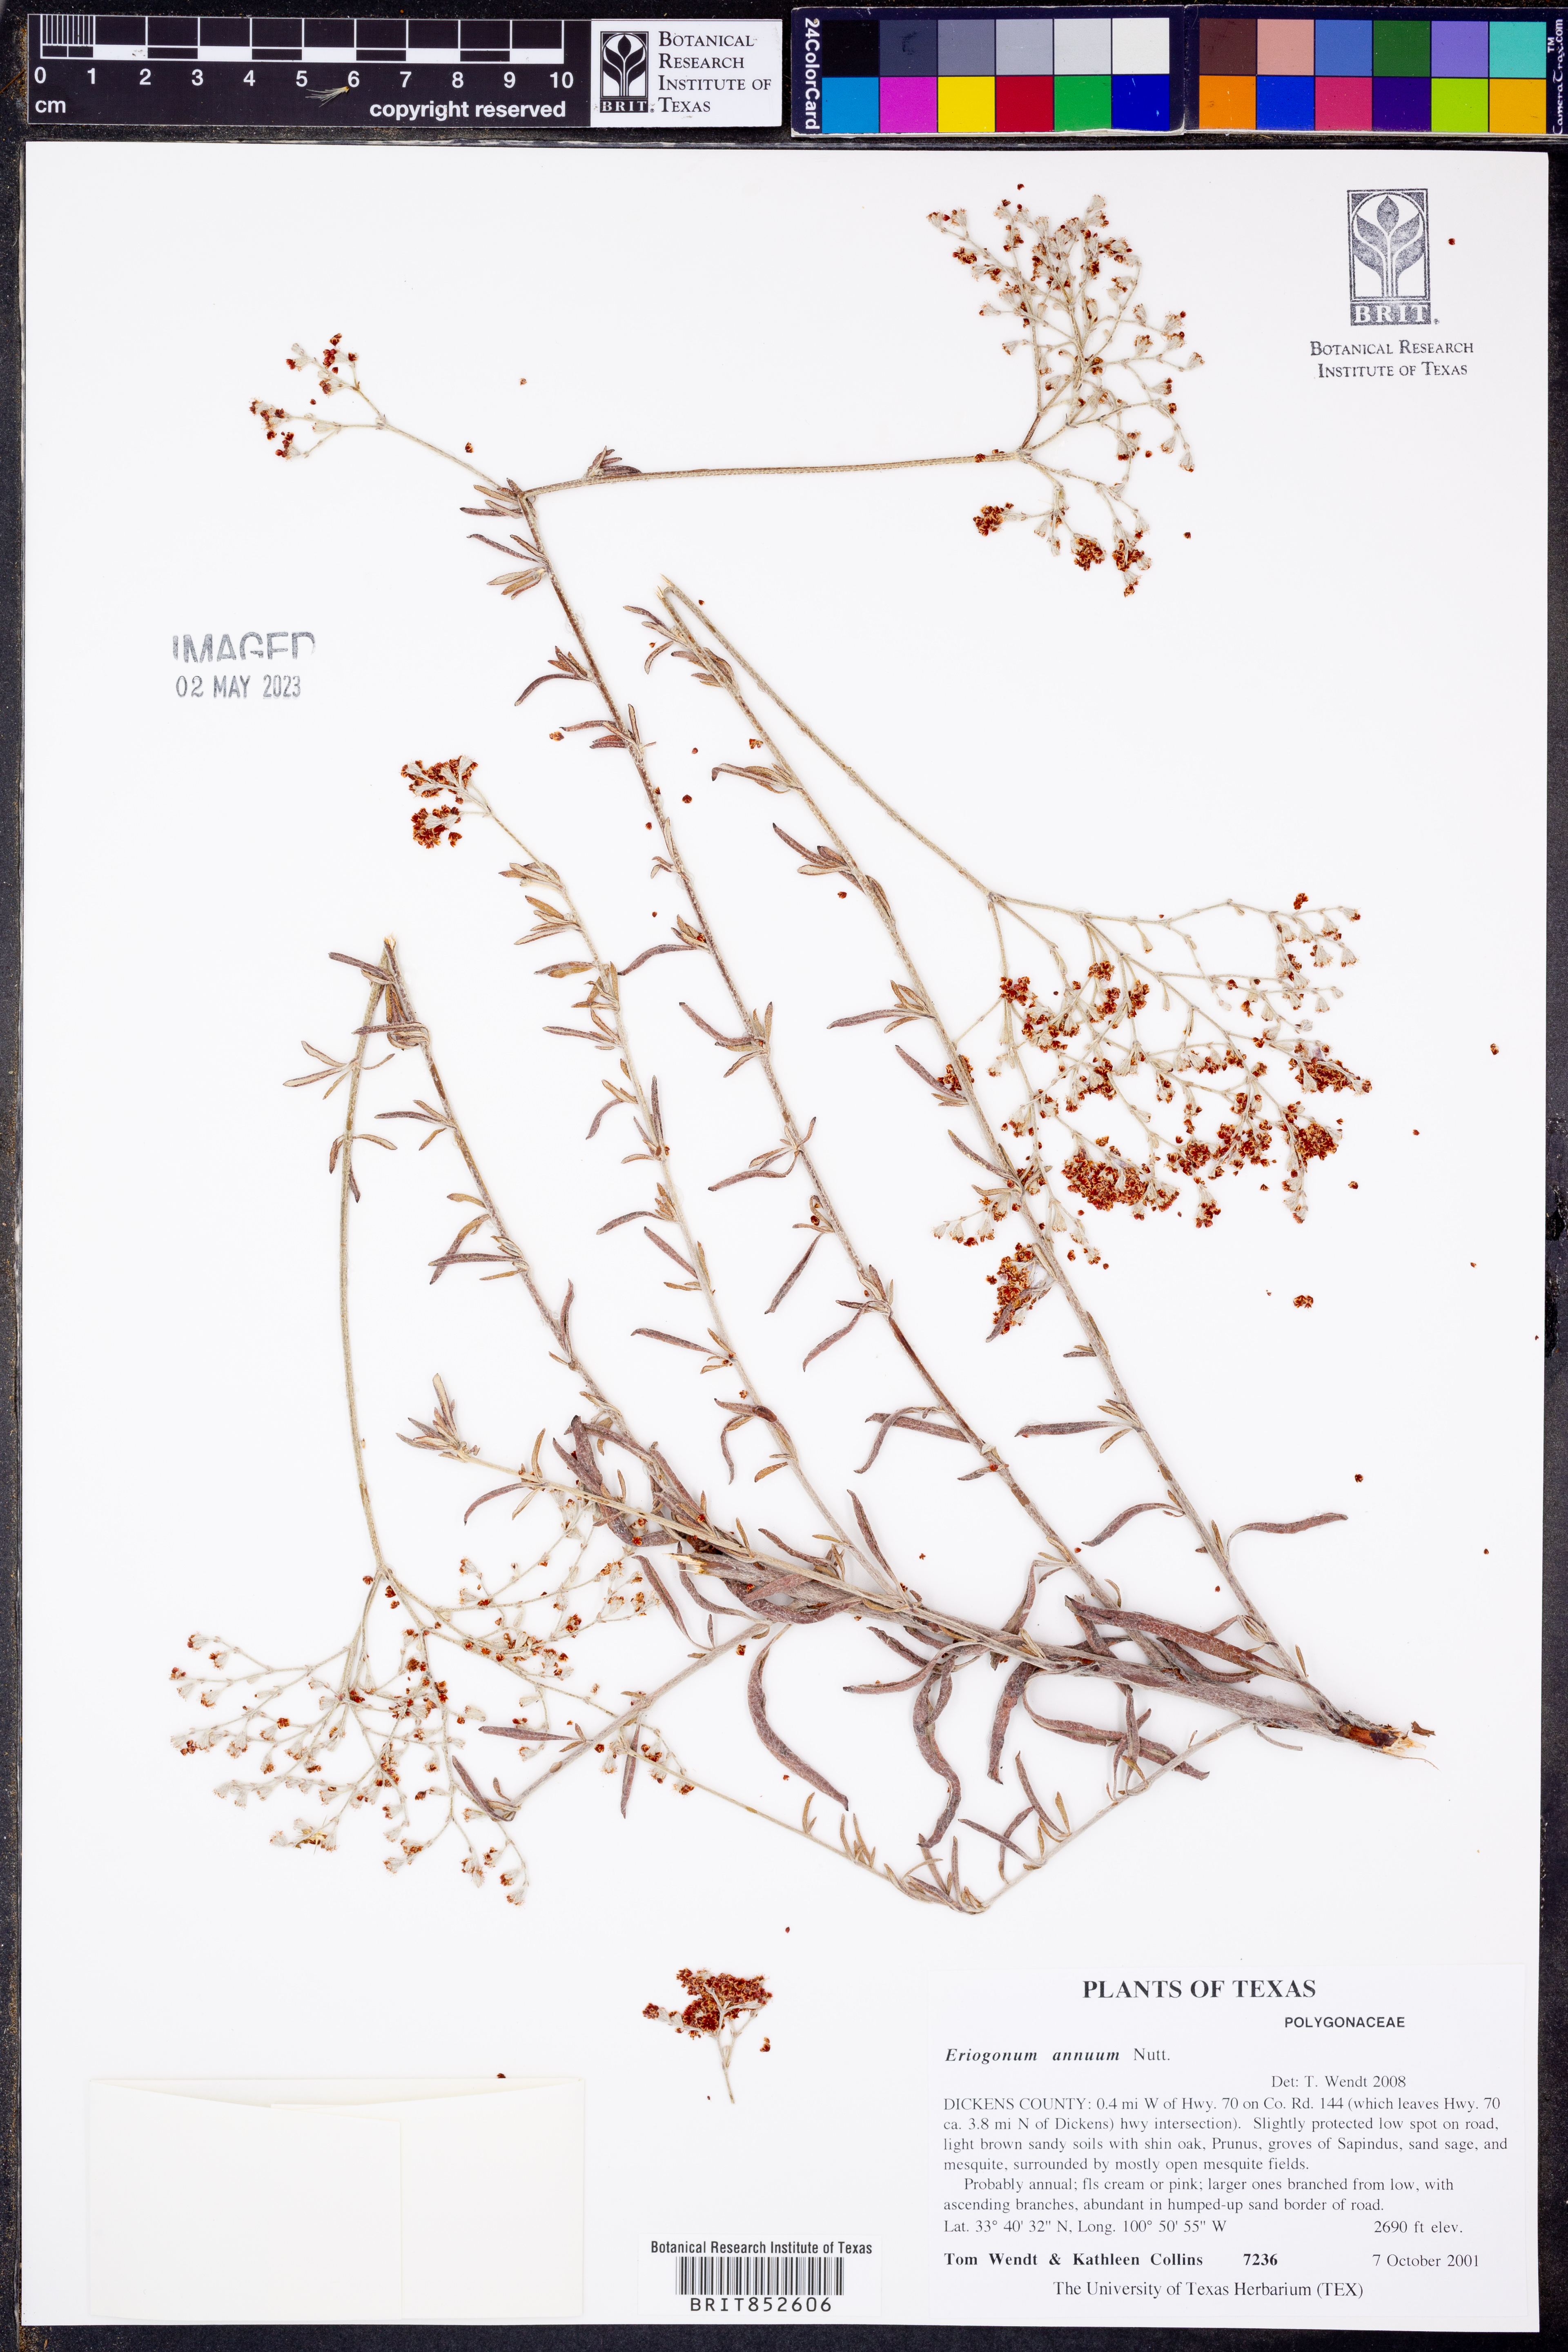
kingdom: Plantae
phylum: Tracheophyta
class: Magnoliopsida
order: Caryophyllales
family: Polygonaceae
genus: Eriogonum
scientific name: Eriogonum annuum
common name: Annual wild buckwheat
